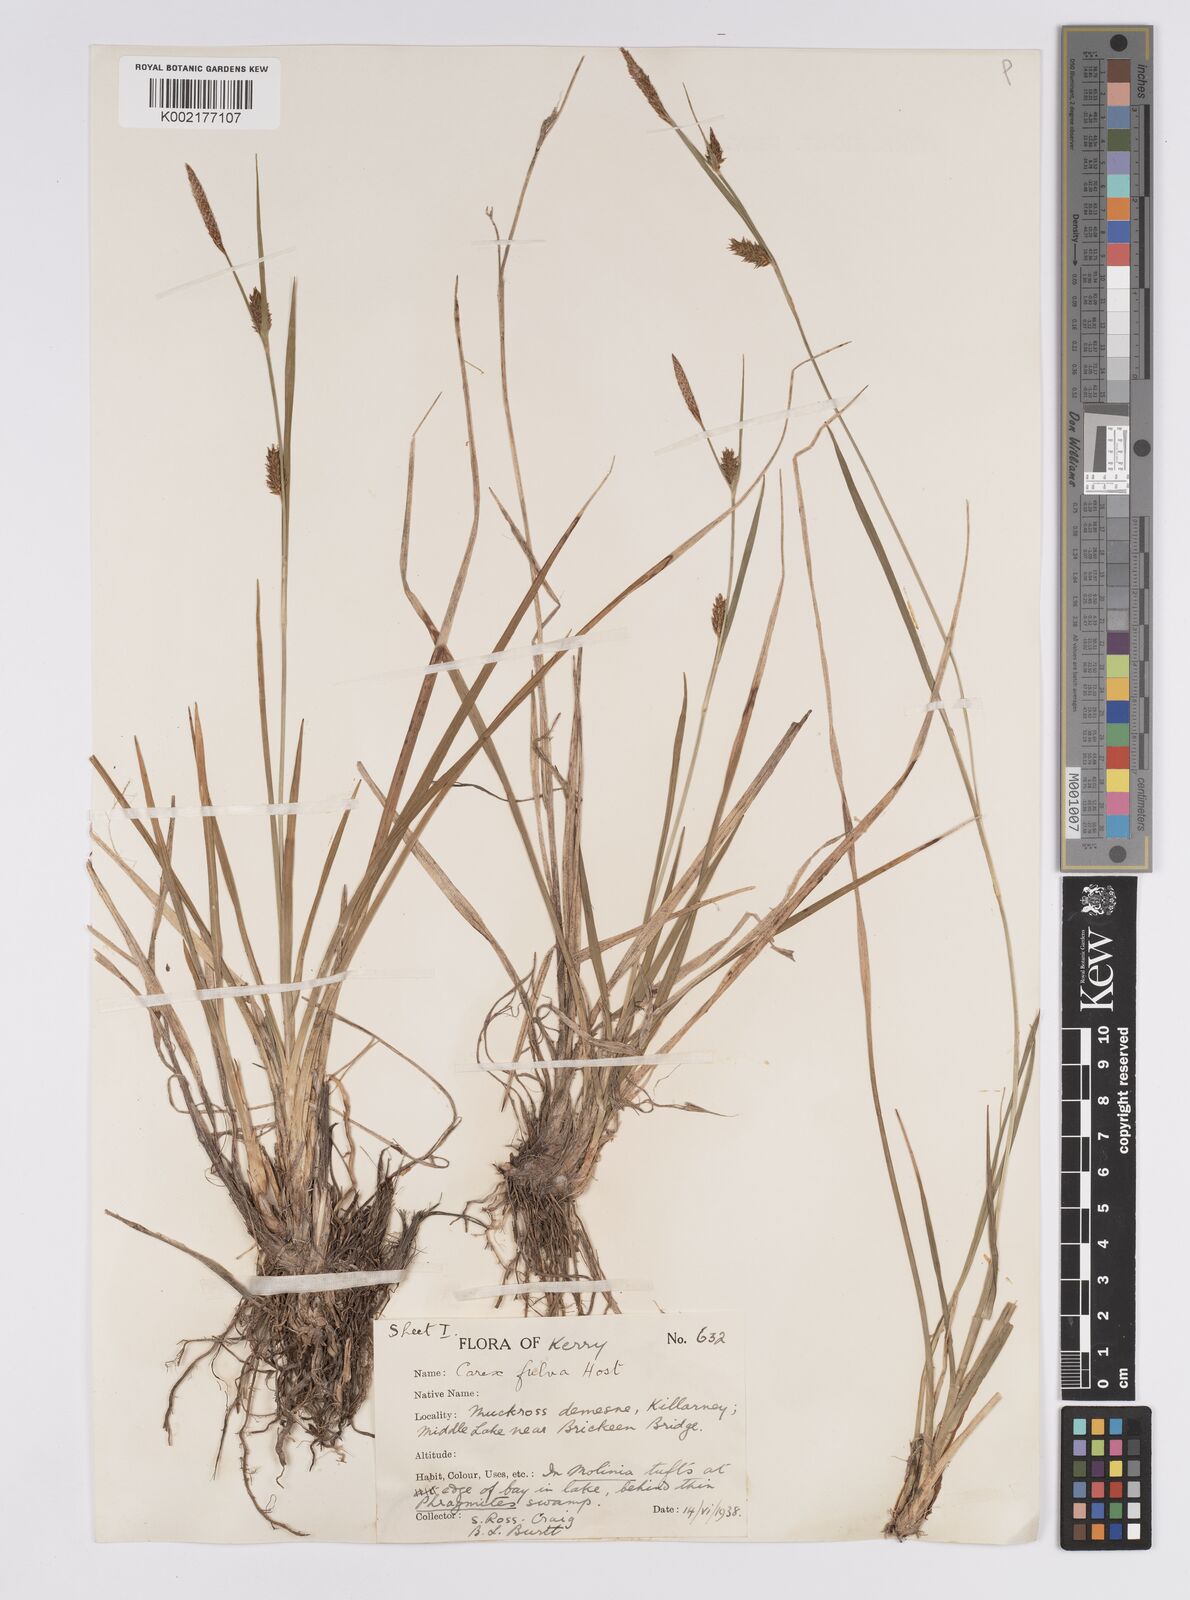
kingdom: Plantae
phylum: Tracheophyta
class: Liliopsida
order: Poales
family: Cyperaceae
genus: Carex
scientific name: Carex hostiana
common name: Tawny sedge
